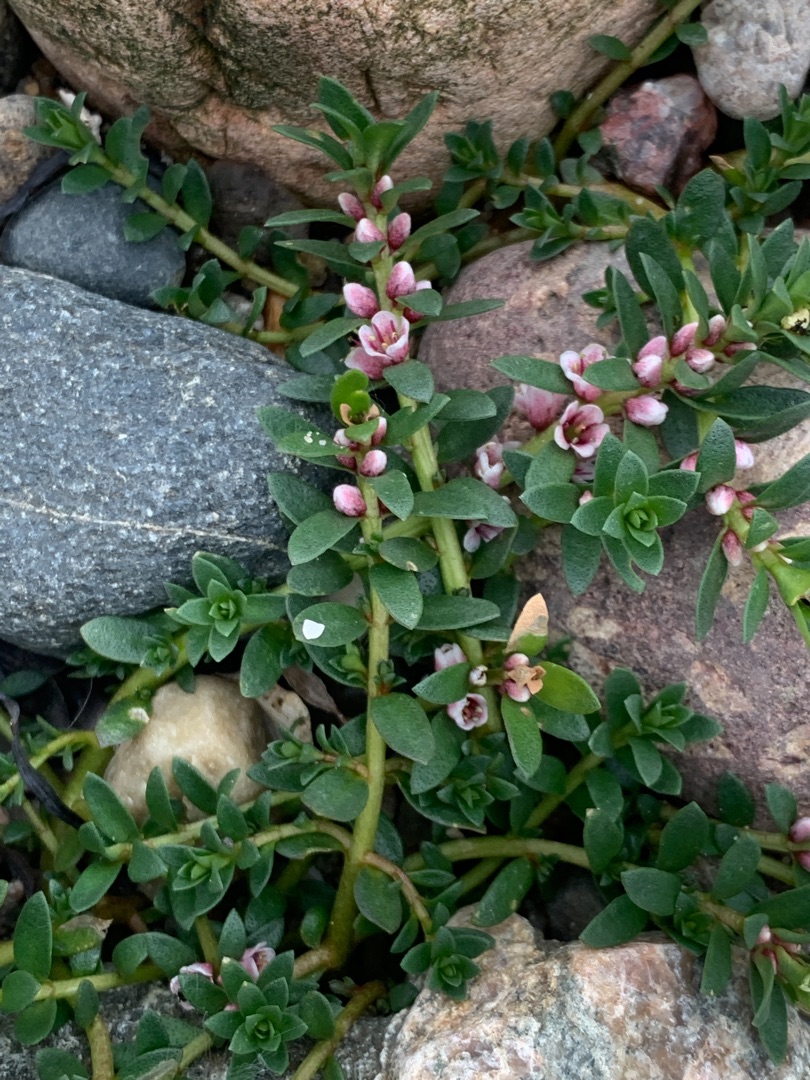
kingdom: Plantae
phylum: Tracheophyta
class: Magnoliopsida
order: Ericales
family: Primulaceae
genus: Lysimachia
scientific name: Lysimachia maritima
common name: Sandkryb
